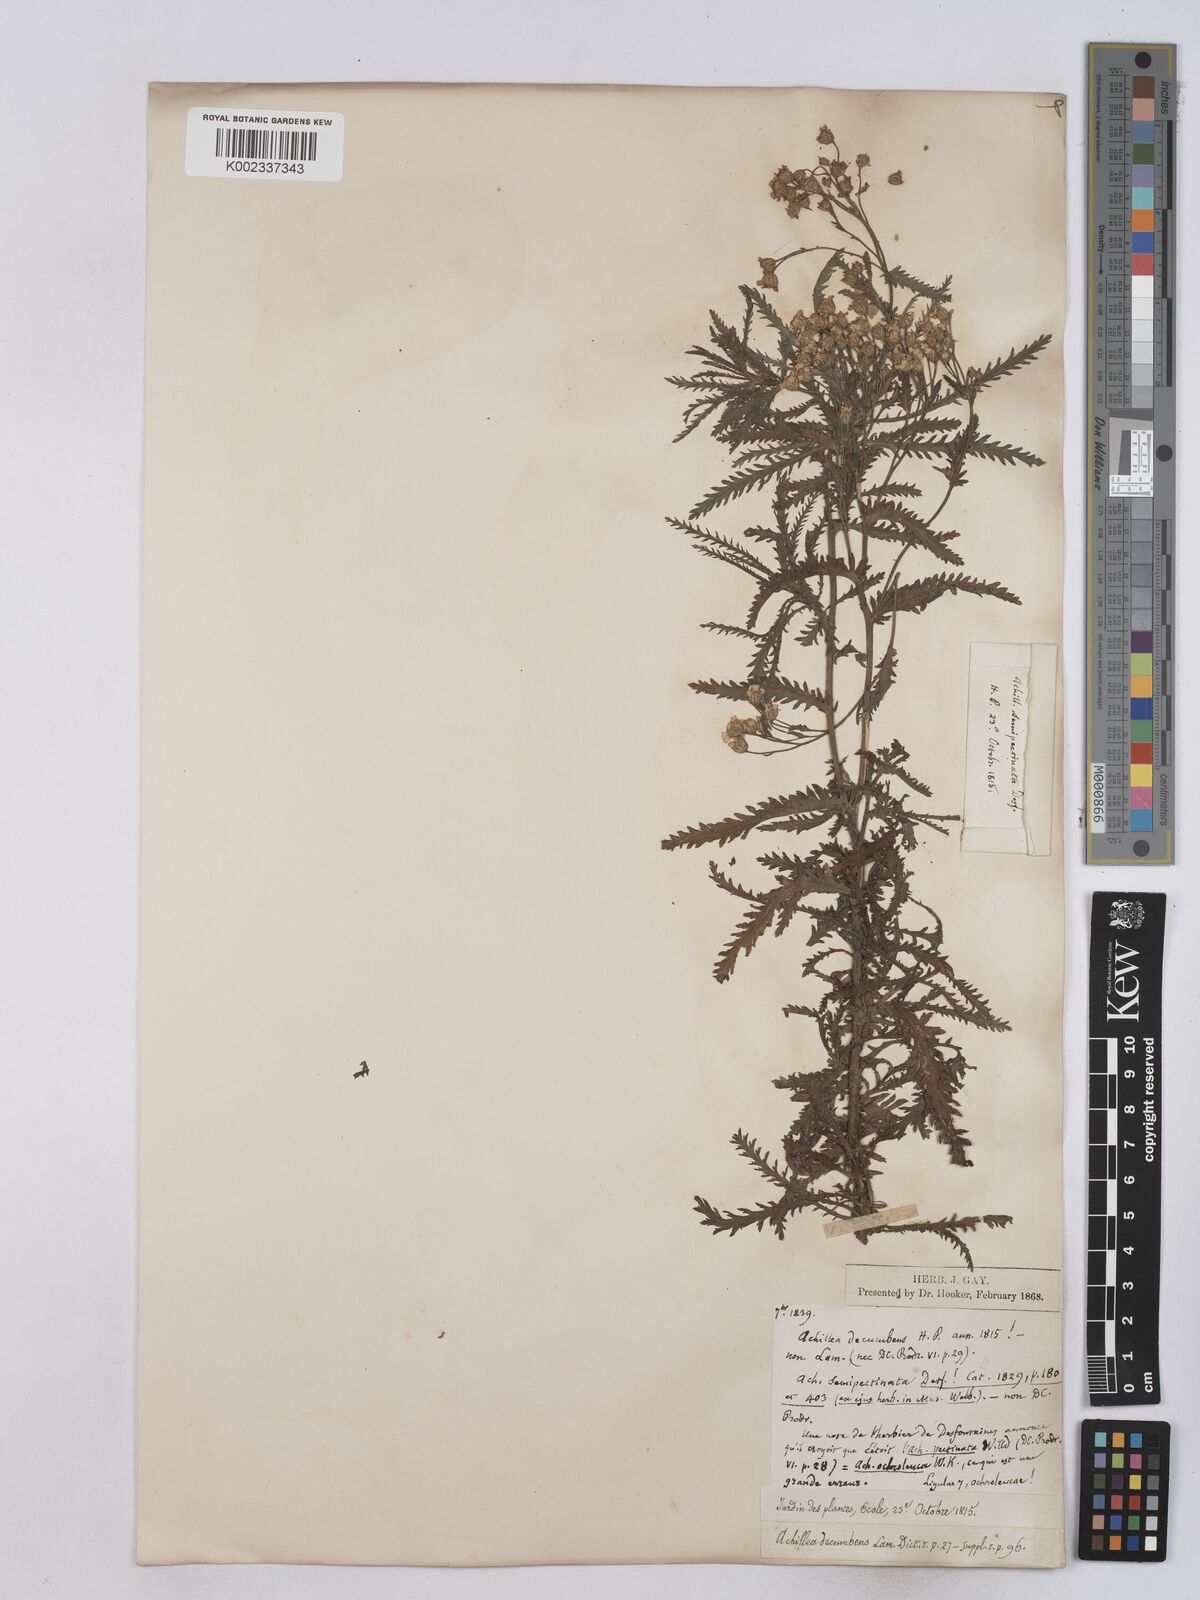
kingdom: Plantae
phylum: Tracheophyta
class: Magnoliopsida
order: Asterales
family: Asteraceae
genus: Achillea
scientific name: Achillea serrata
